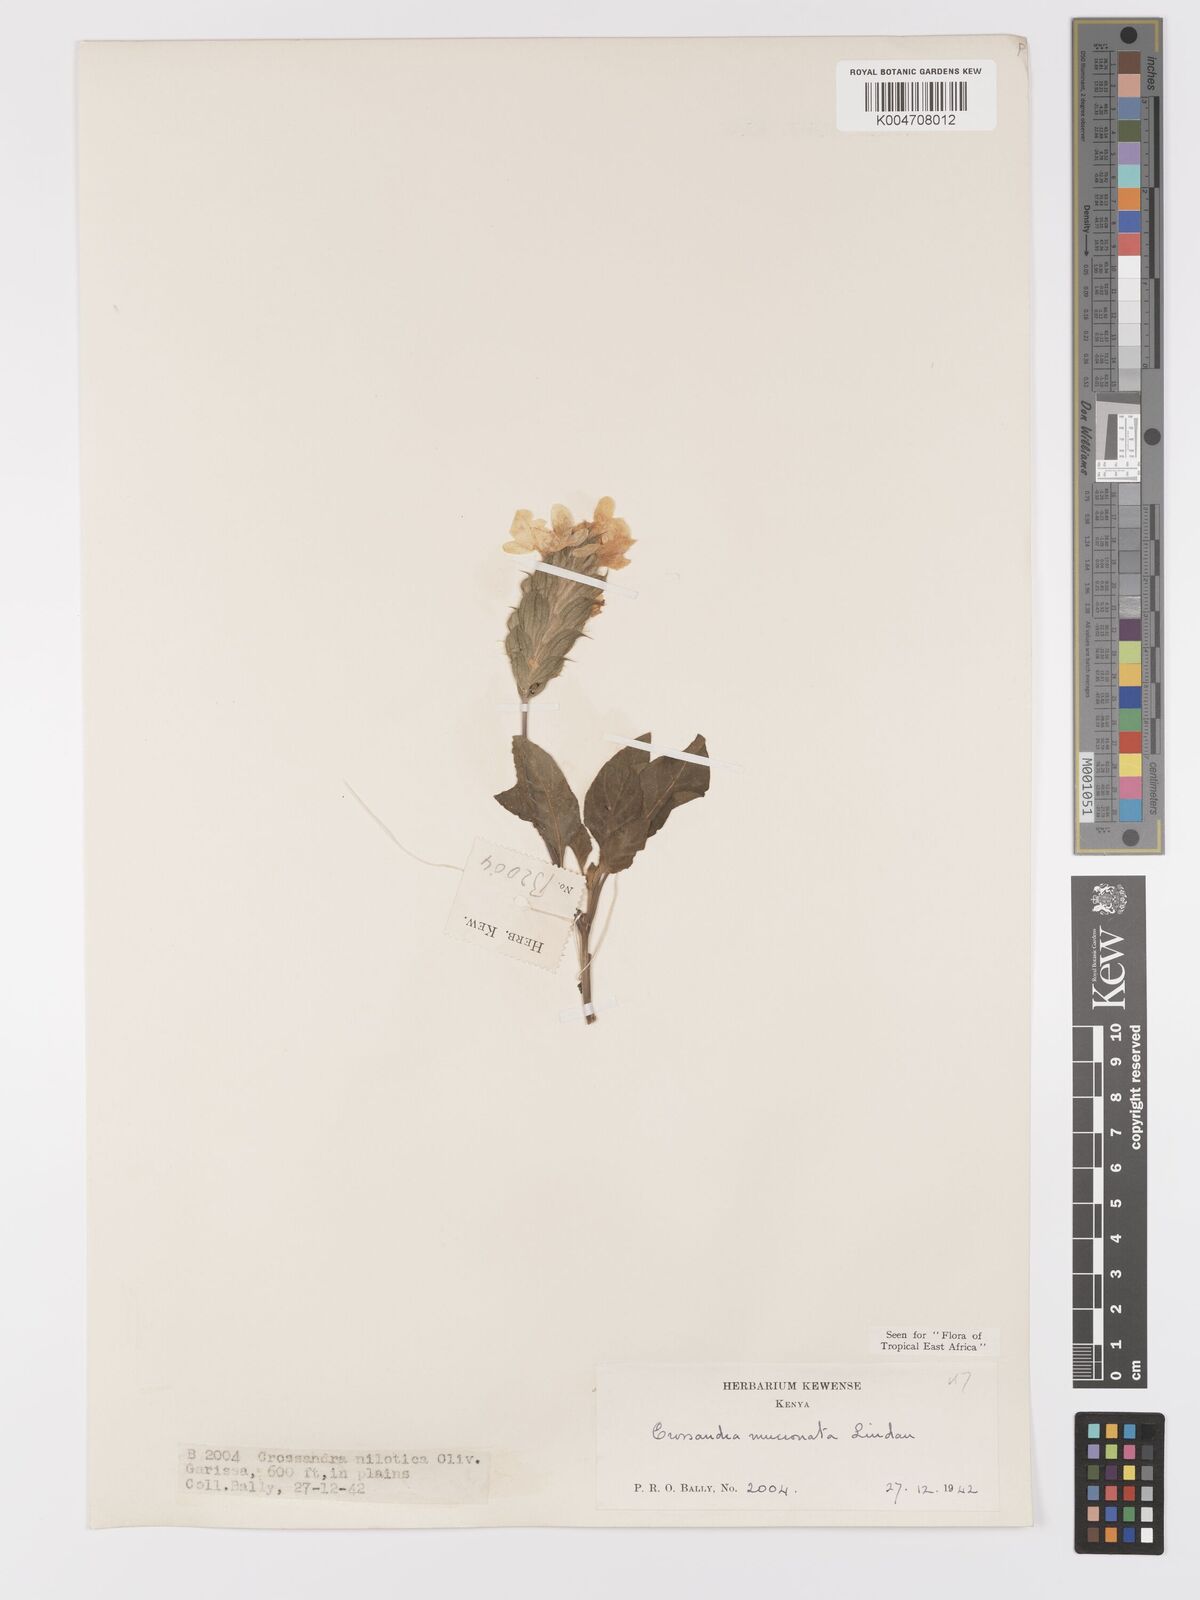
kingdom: Plantae
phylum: Tracheophyta
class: Magnoliopsida
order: Lamiales
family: Acanthaceae
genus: Crossandra
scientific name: Crossandra mucronata
